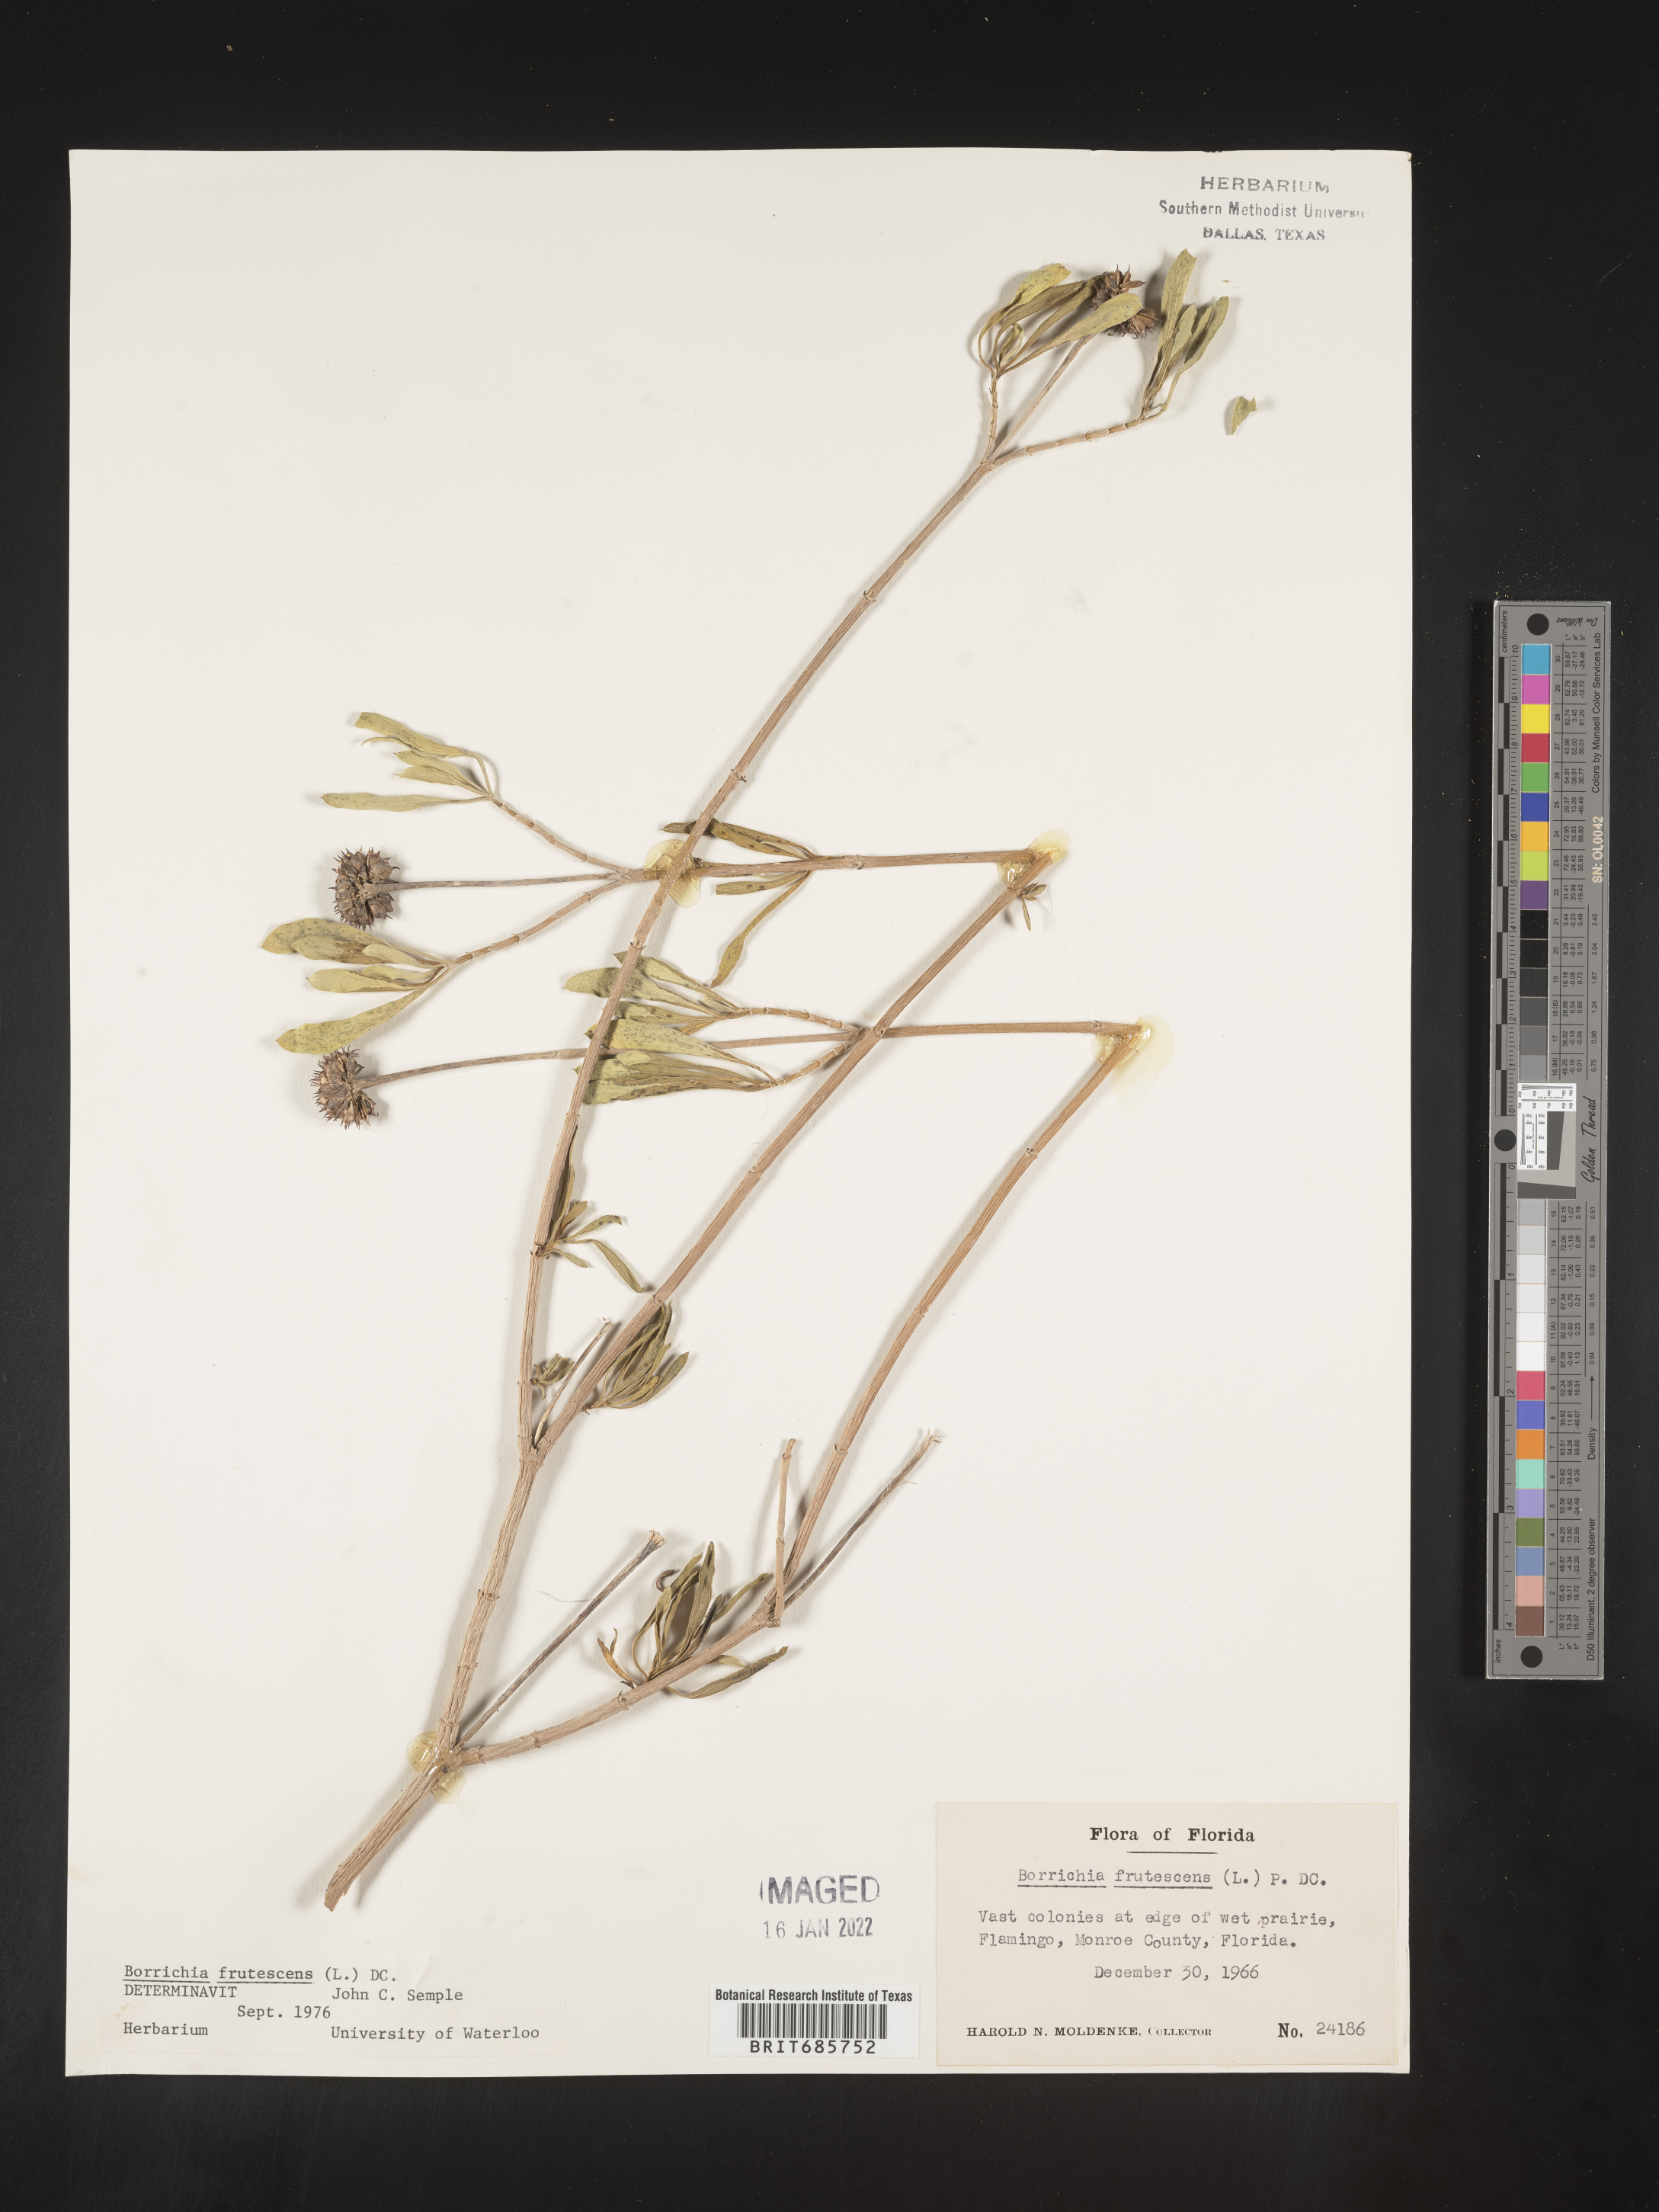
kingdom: Plantae
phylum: Tracheophyta
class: Magnoliopsida
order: Asterales
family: Asteraceae
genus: Borrichia
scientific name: Borrichia frutescens
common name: Sea oxeye
